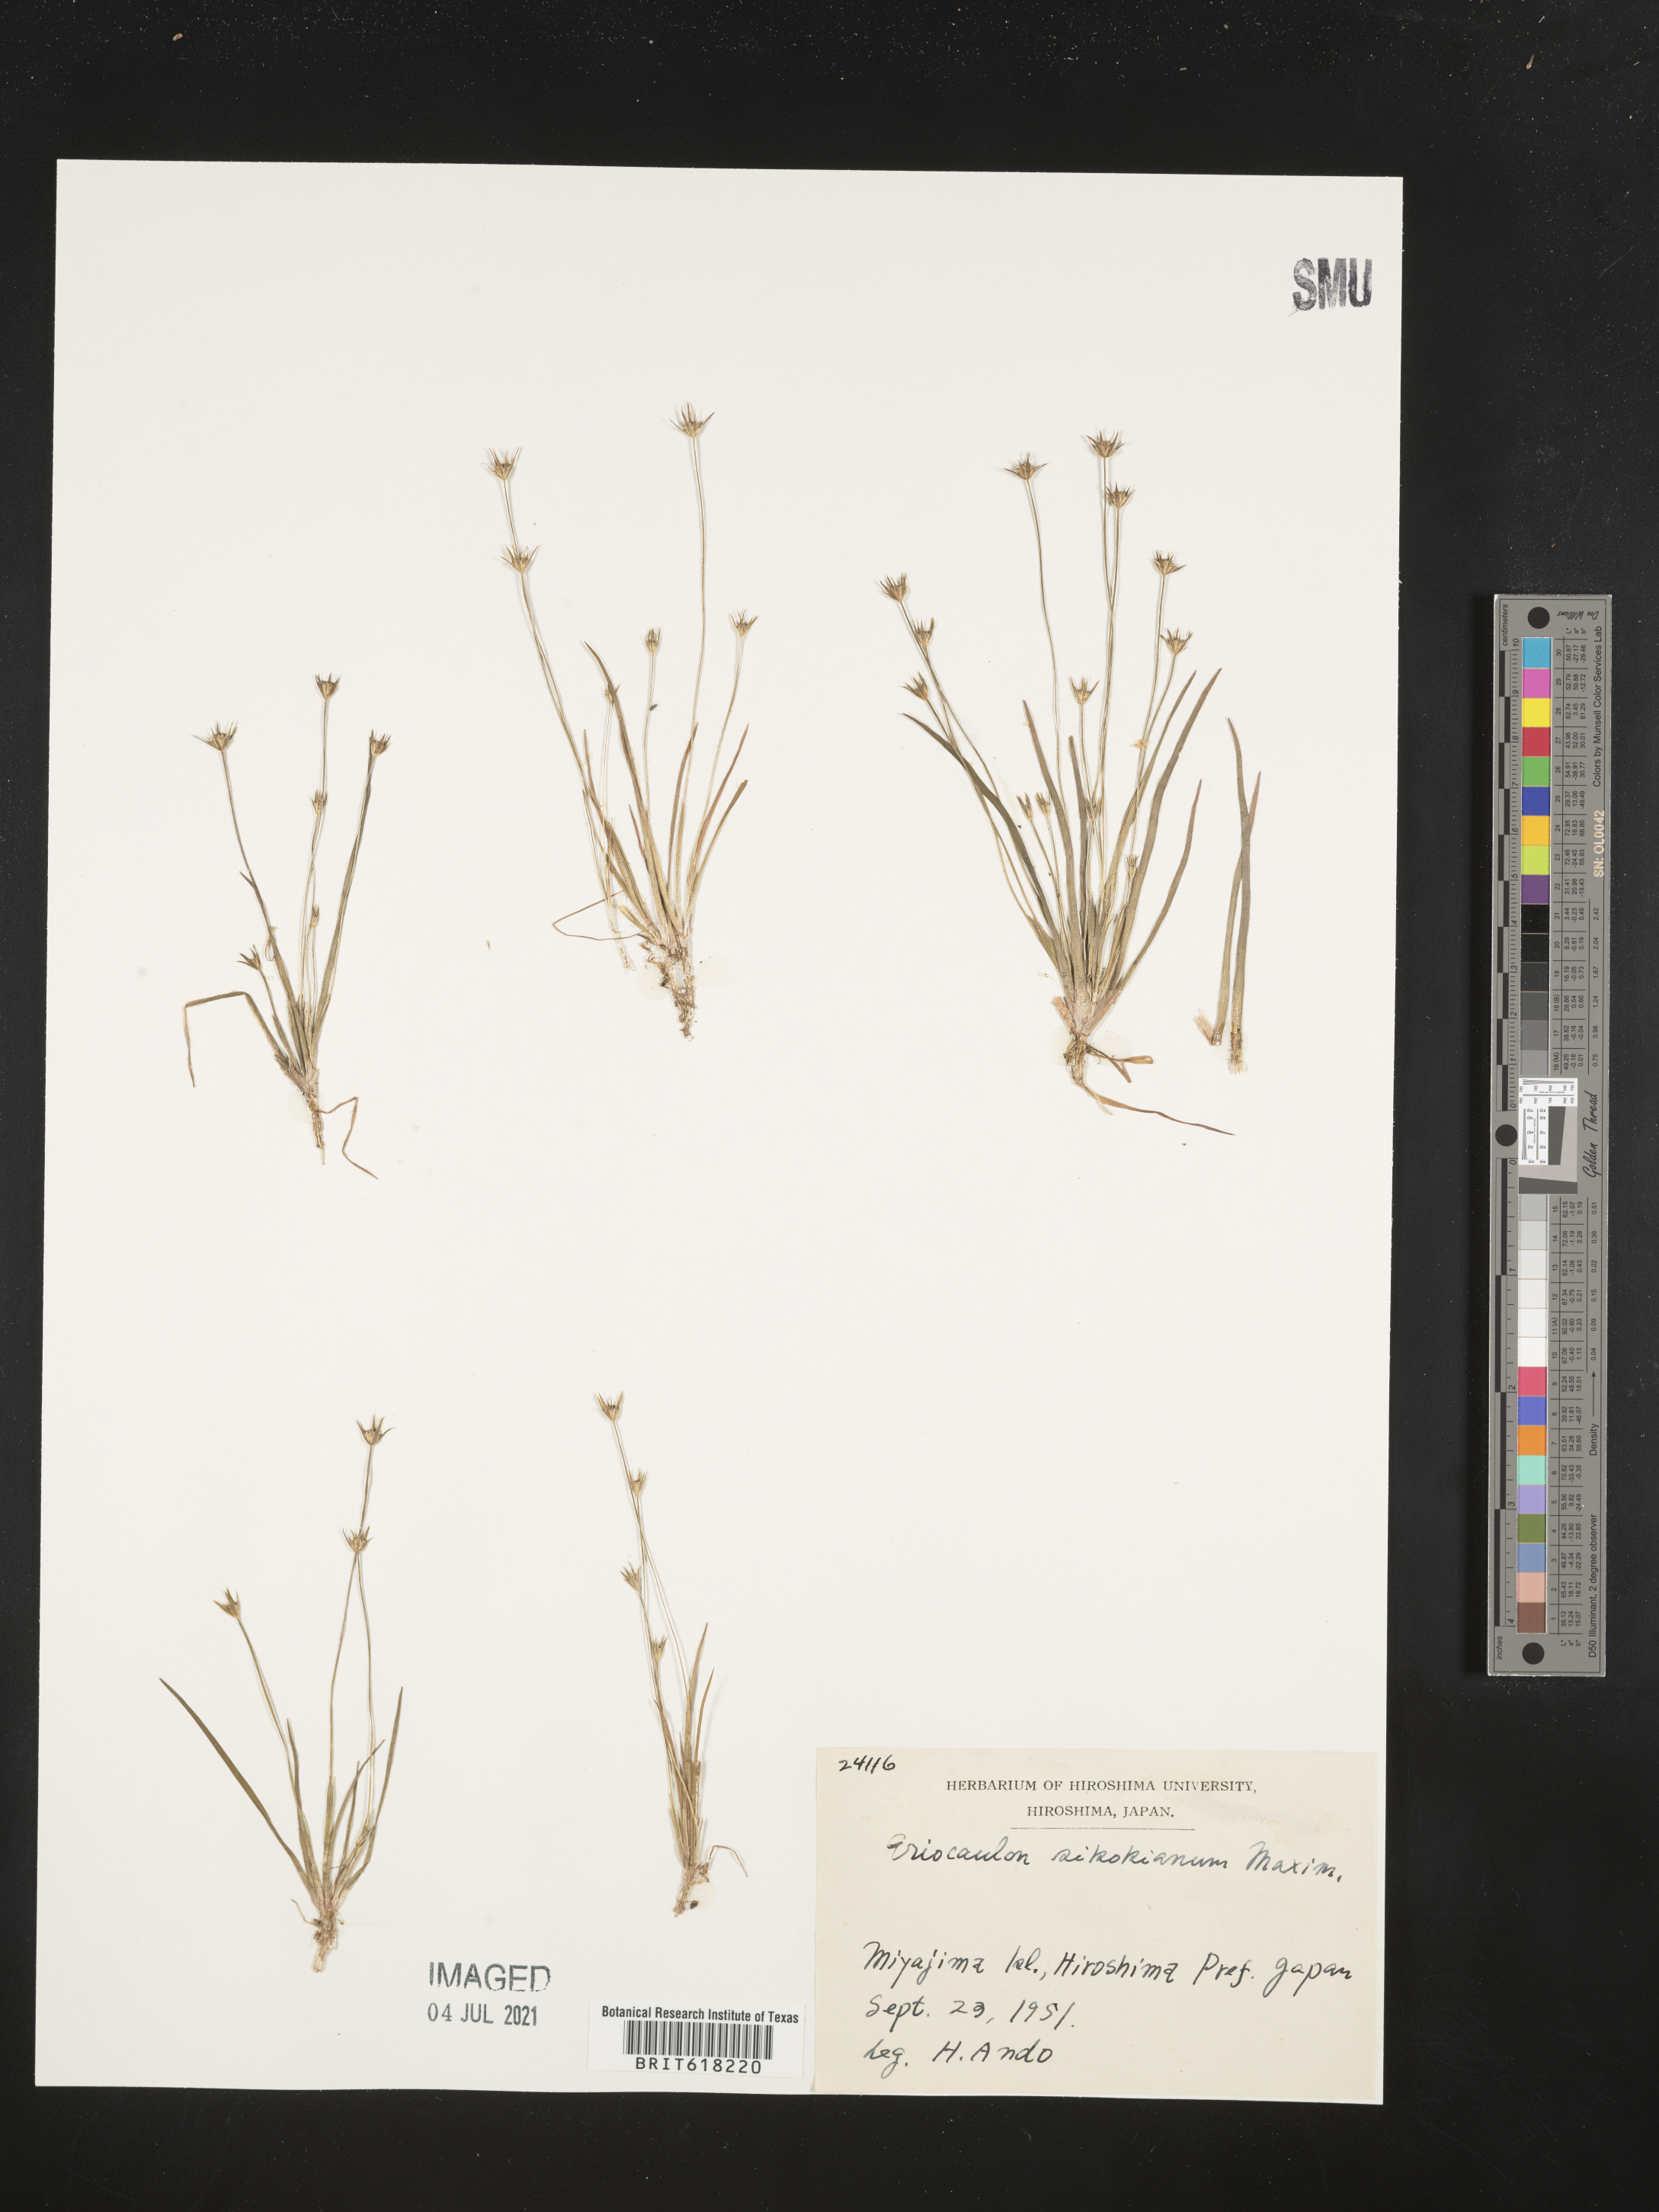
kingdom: Plantae
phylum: Tracheophyta
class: Liliopsida
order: Poales
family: Eriocaulaceae
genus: Eriocaulon
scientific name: Eriocaulon miquelianum
